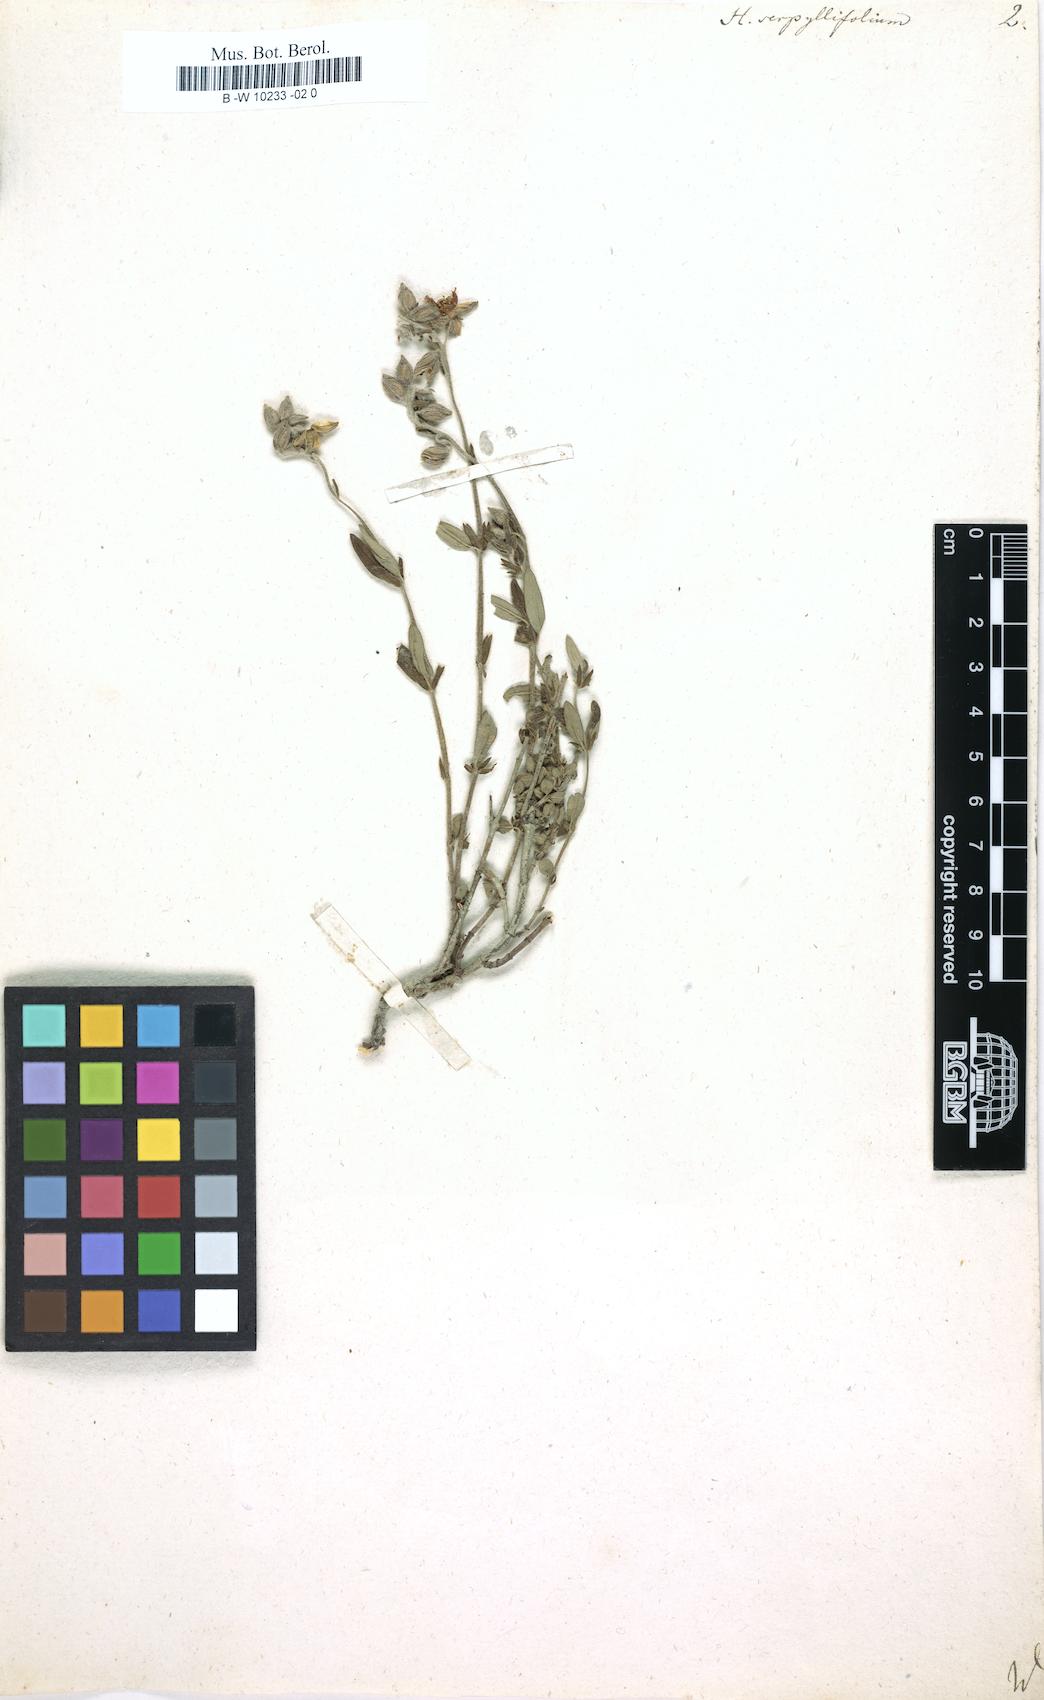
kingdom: Plantae
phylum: Tracheophyta
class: Magnoliopsida
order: Malvales
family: Cistaceae
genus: Helianthemum
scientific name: Helianthemum nummularium
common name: Common rock-rose
